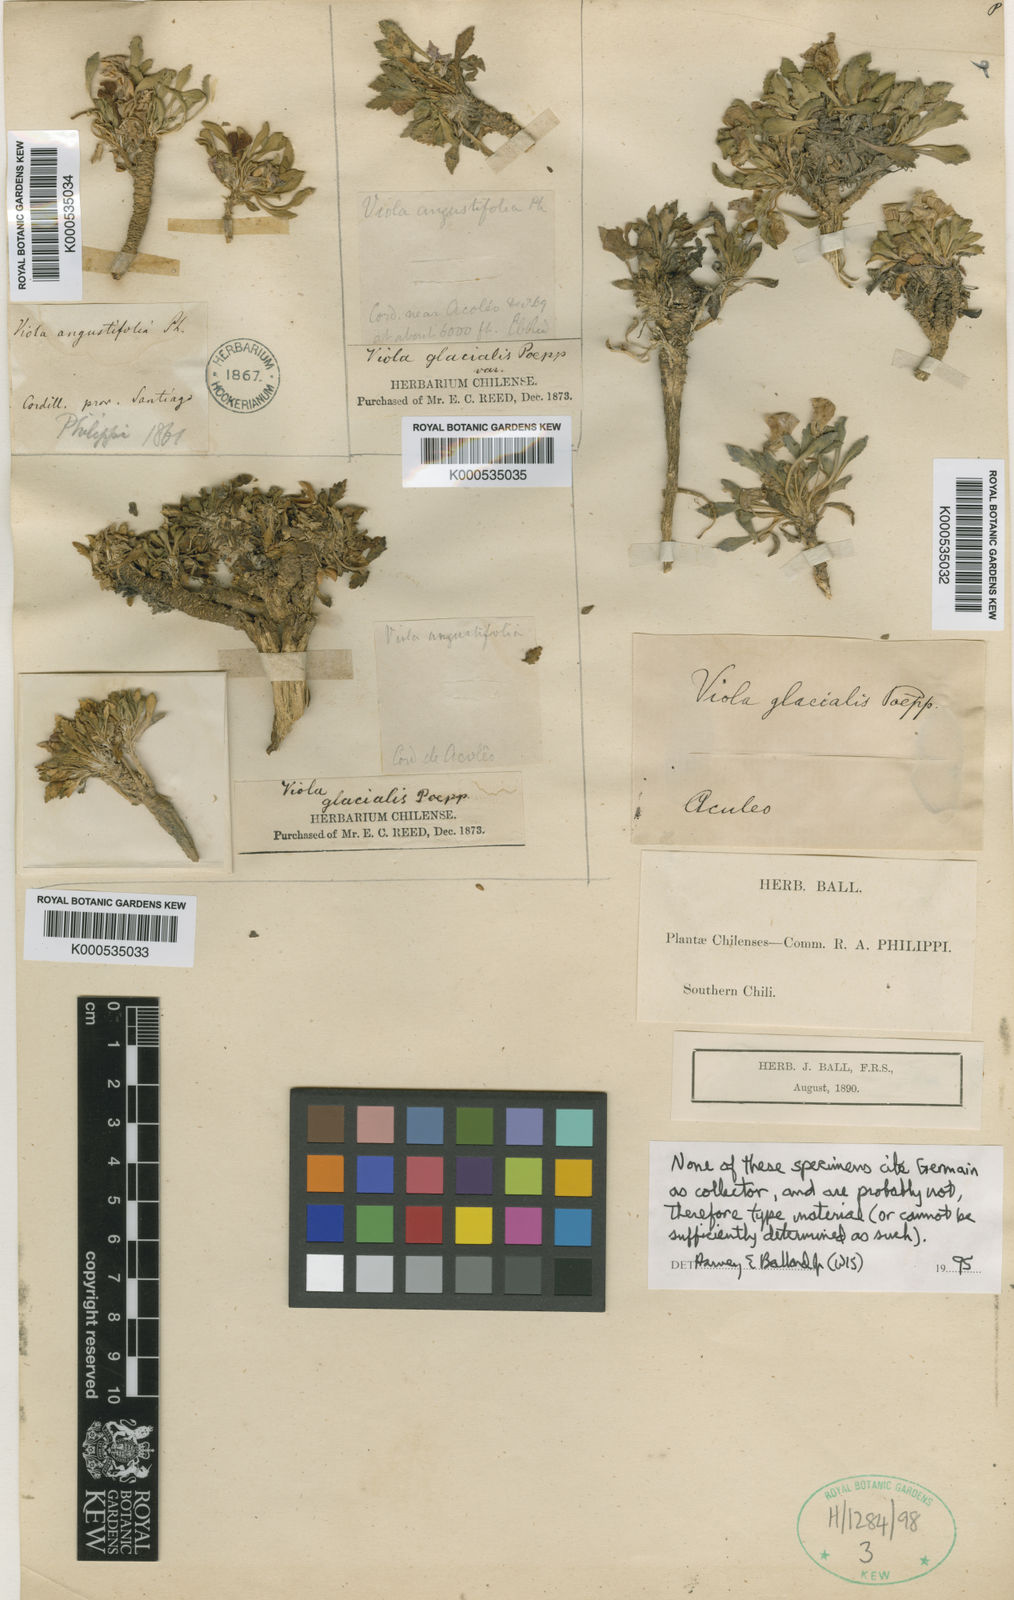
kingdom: Plantae
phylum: Tracheophyta
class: Magnoliopsida
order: Malpighiales
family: Violaceae
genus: Viola
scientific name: Viola truncata
